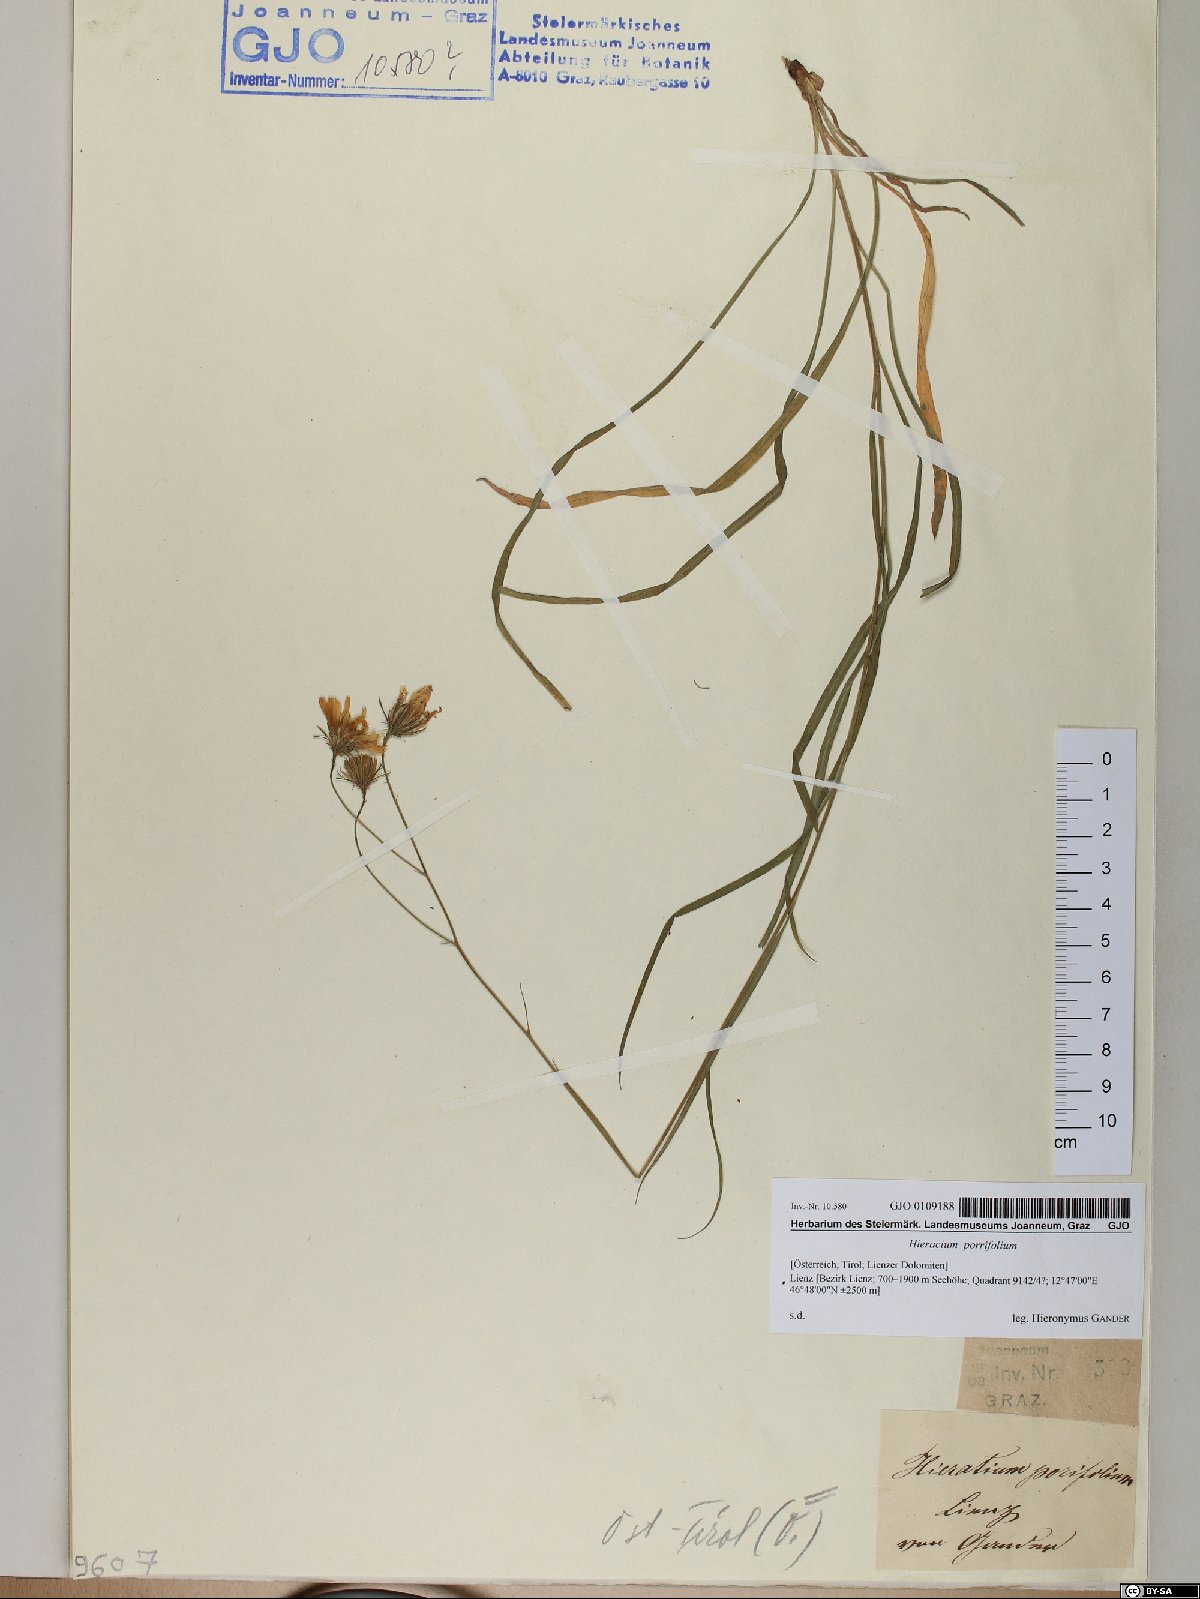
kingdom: Plantae
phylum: Tracheophyta
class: Magnoliopsida
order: Asterales
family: Asteraceae
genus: Hieracium
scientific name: Hieracium porrifolium
